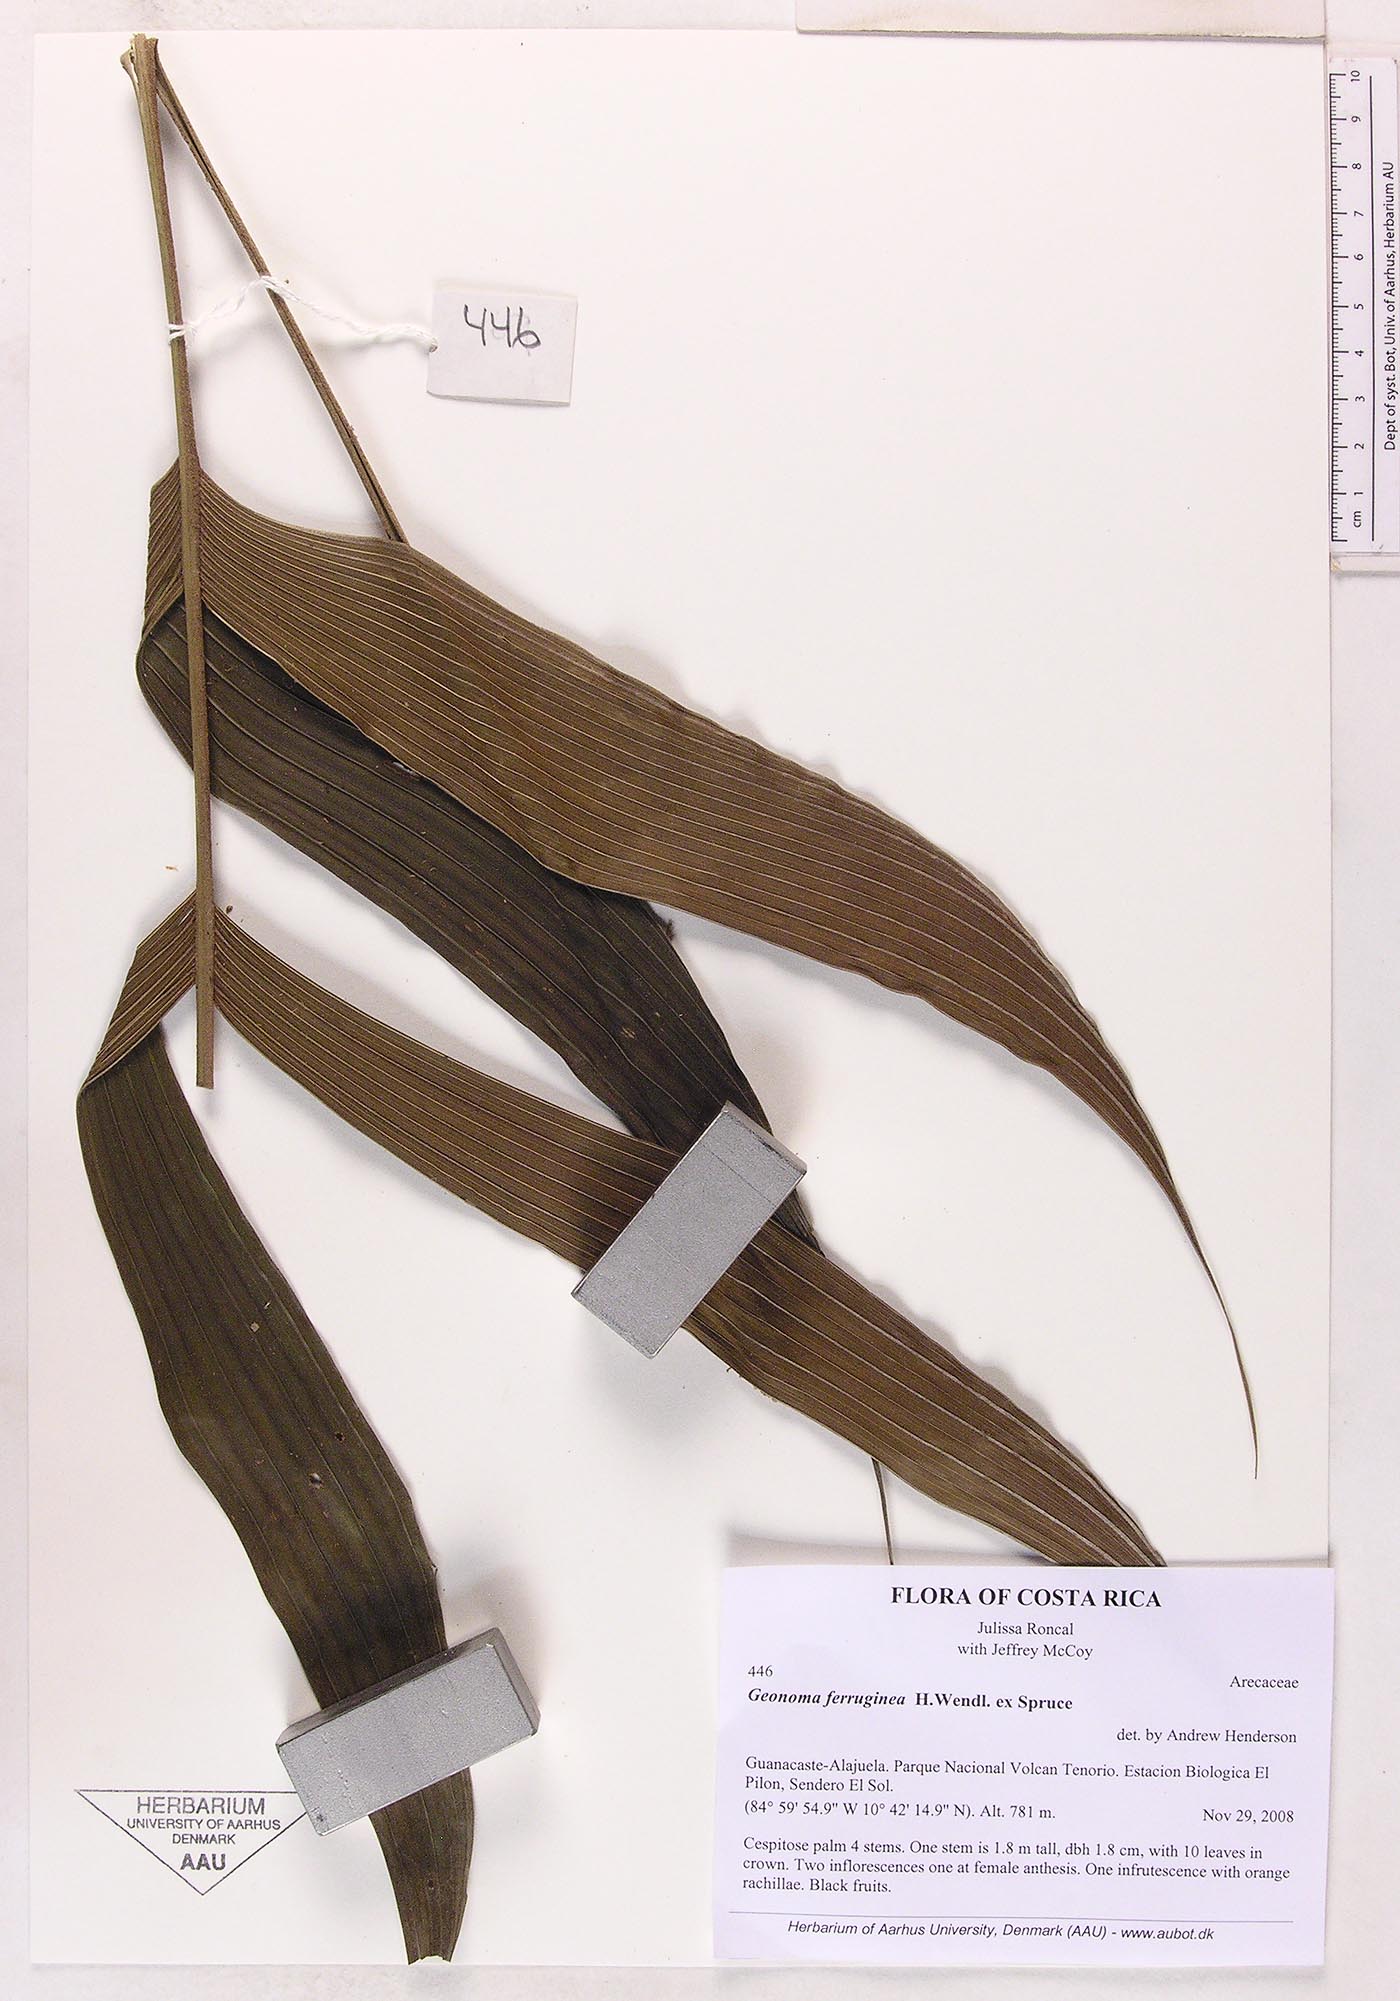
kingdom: Plantae
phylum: Tracheophyta
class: Liliopsida
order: Arecales
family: Arecaceae
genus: Geonoma
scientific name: Geonoma ferruginea
